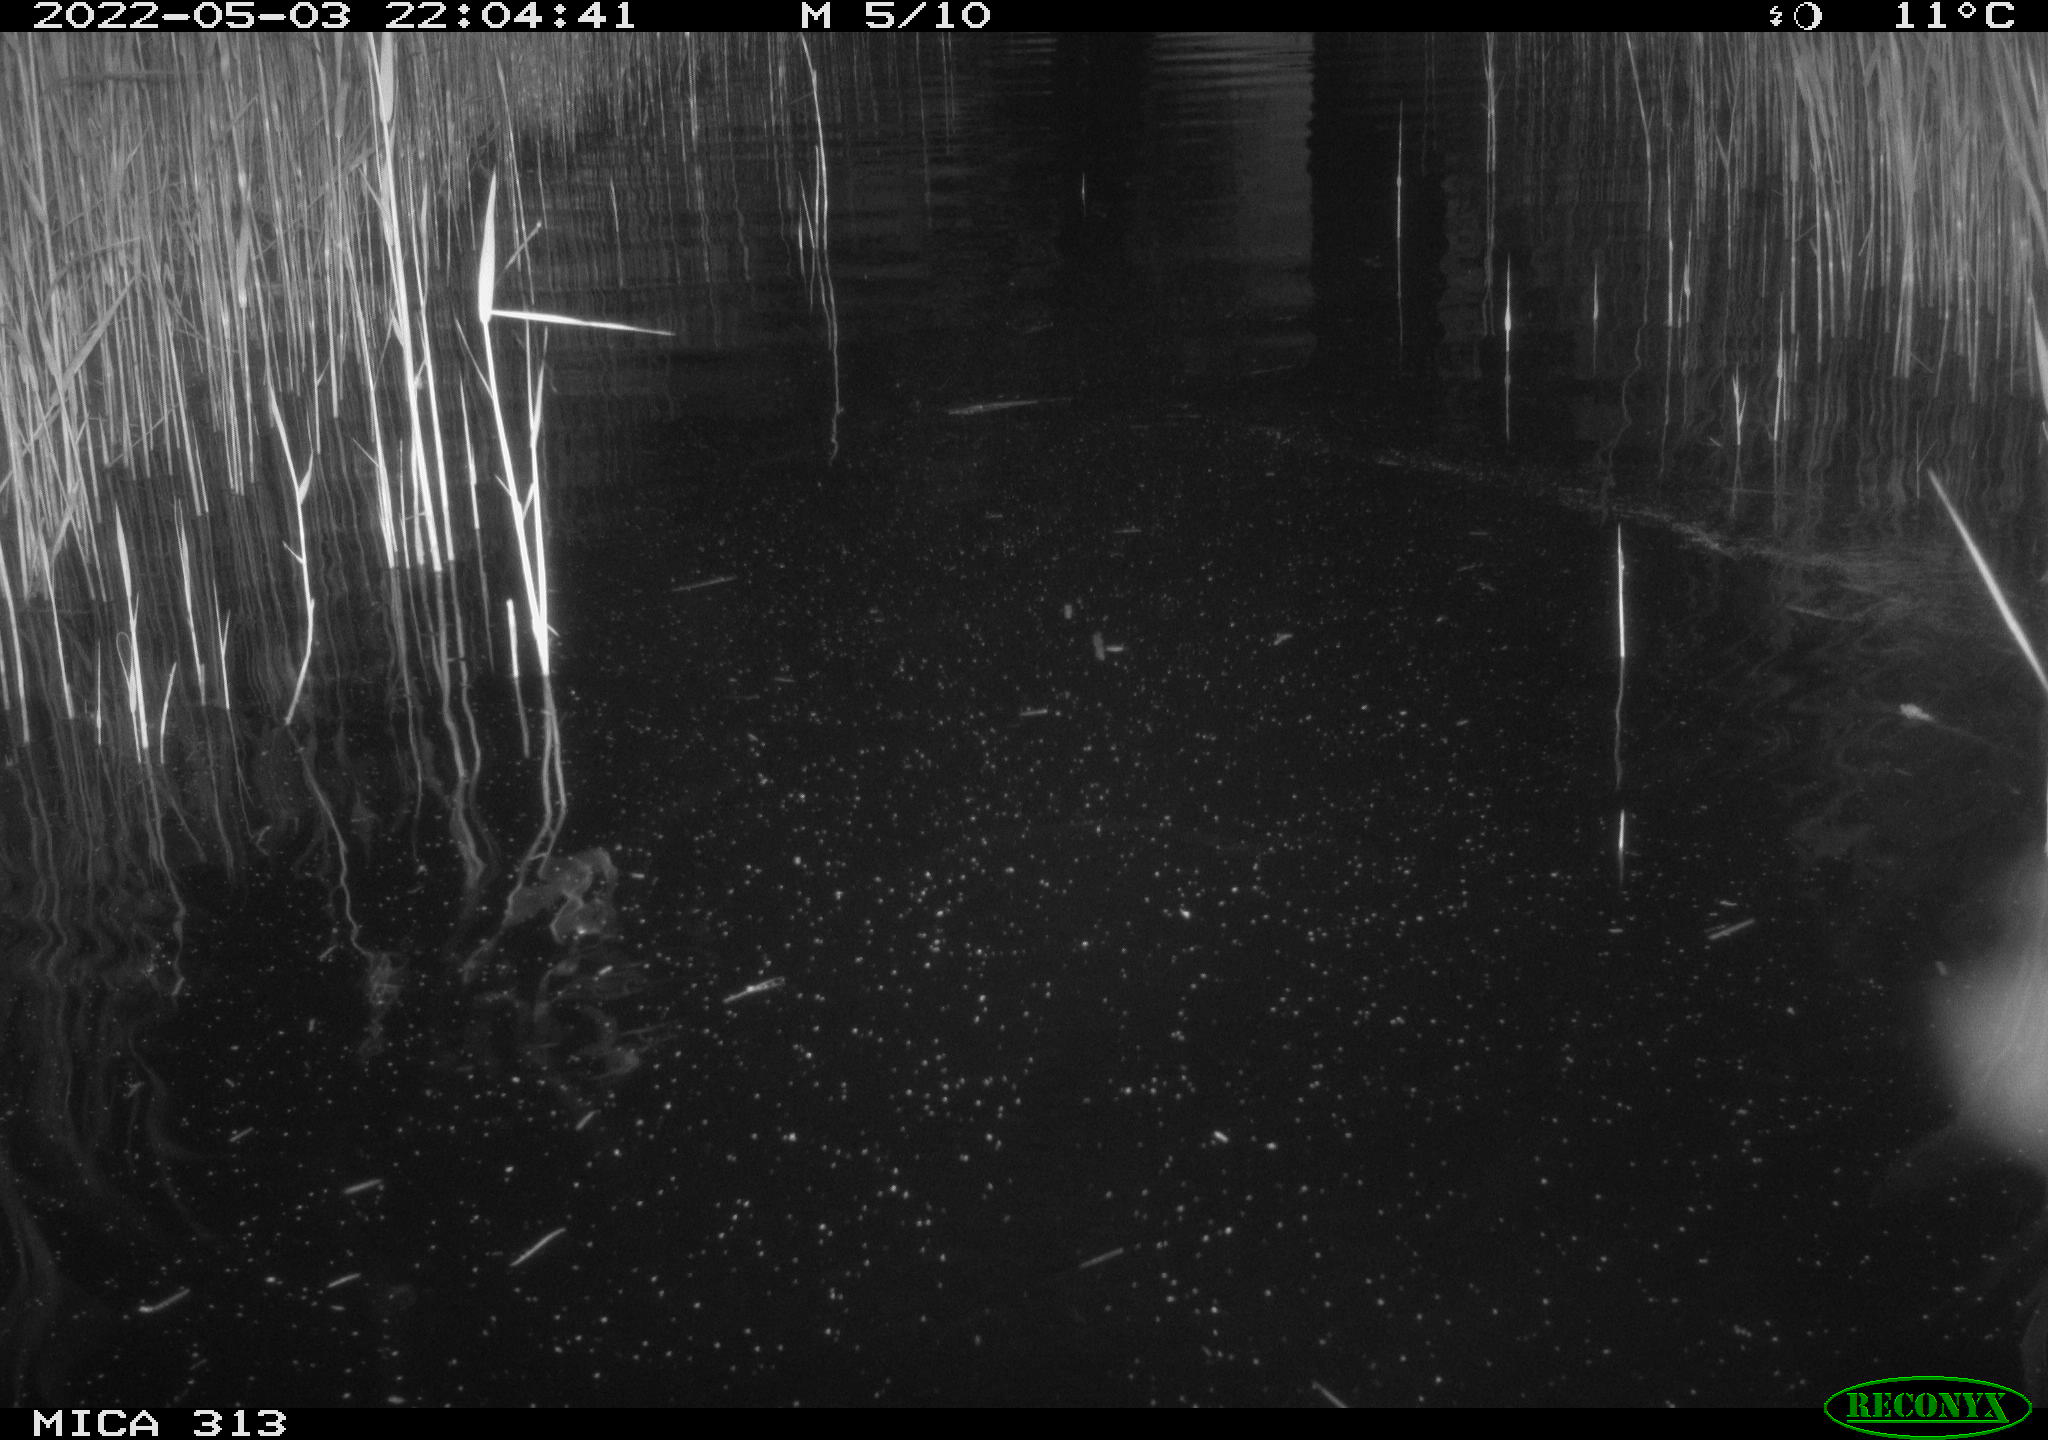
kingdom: Animalia
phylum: Chordata
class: Aves
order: Anseriformes
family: Anatidae
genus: Anas
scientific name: Anas platyrhynchos
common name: Mallard
